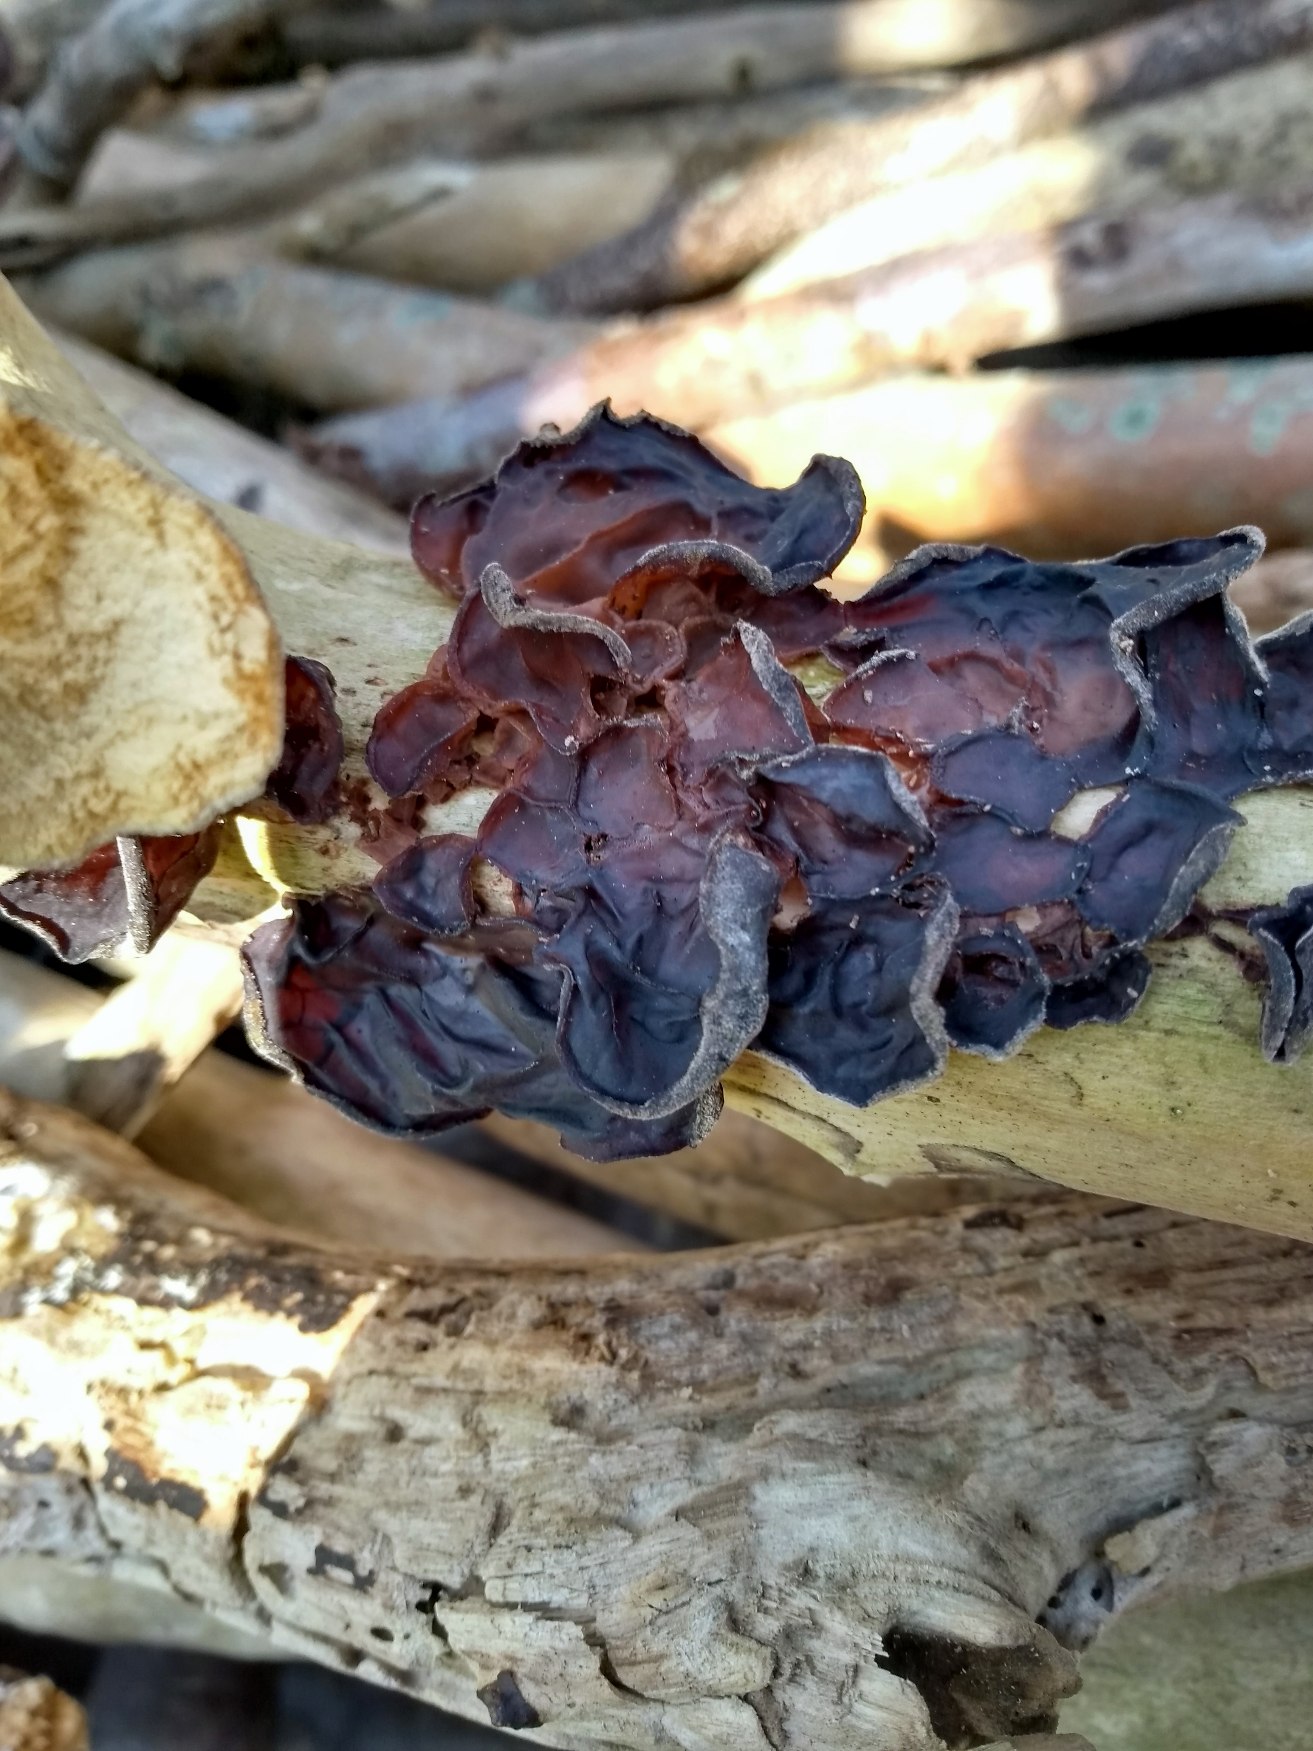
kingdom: Fungi
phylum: Basidiomycota
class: Agaricomycetes
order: Auriculariales
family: Auriculariaceae
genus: Auricularia
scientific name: Auricularia auricula-judae
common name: Almindelig judasøre
